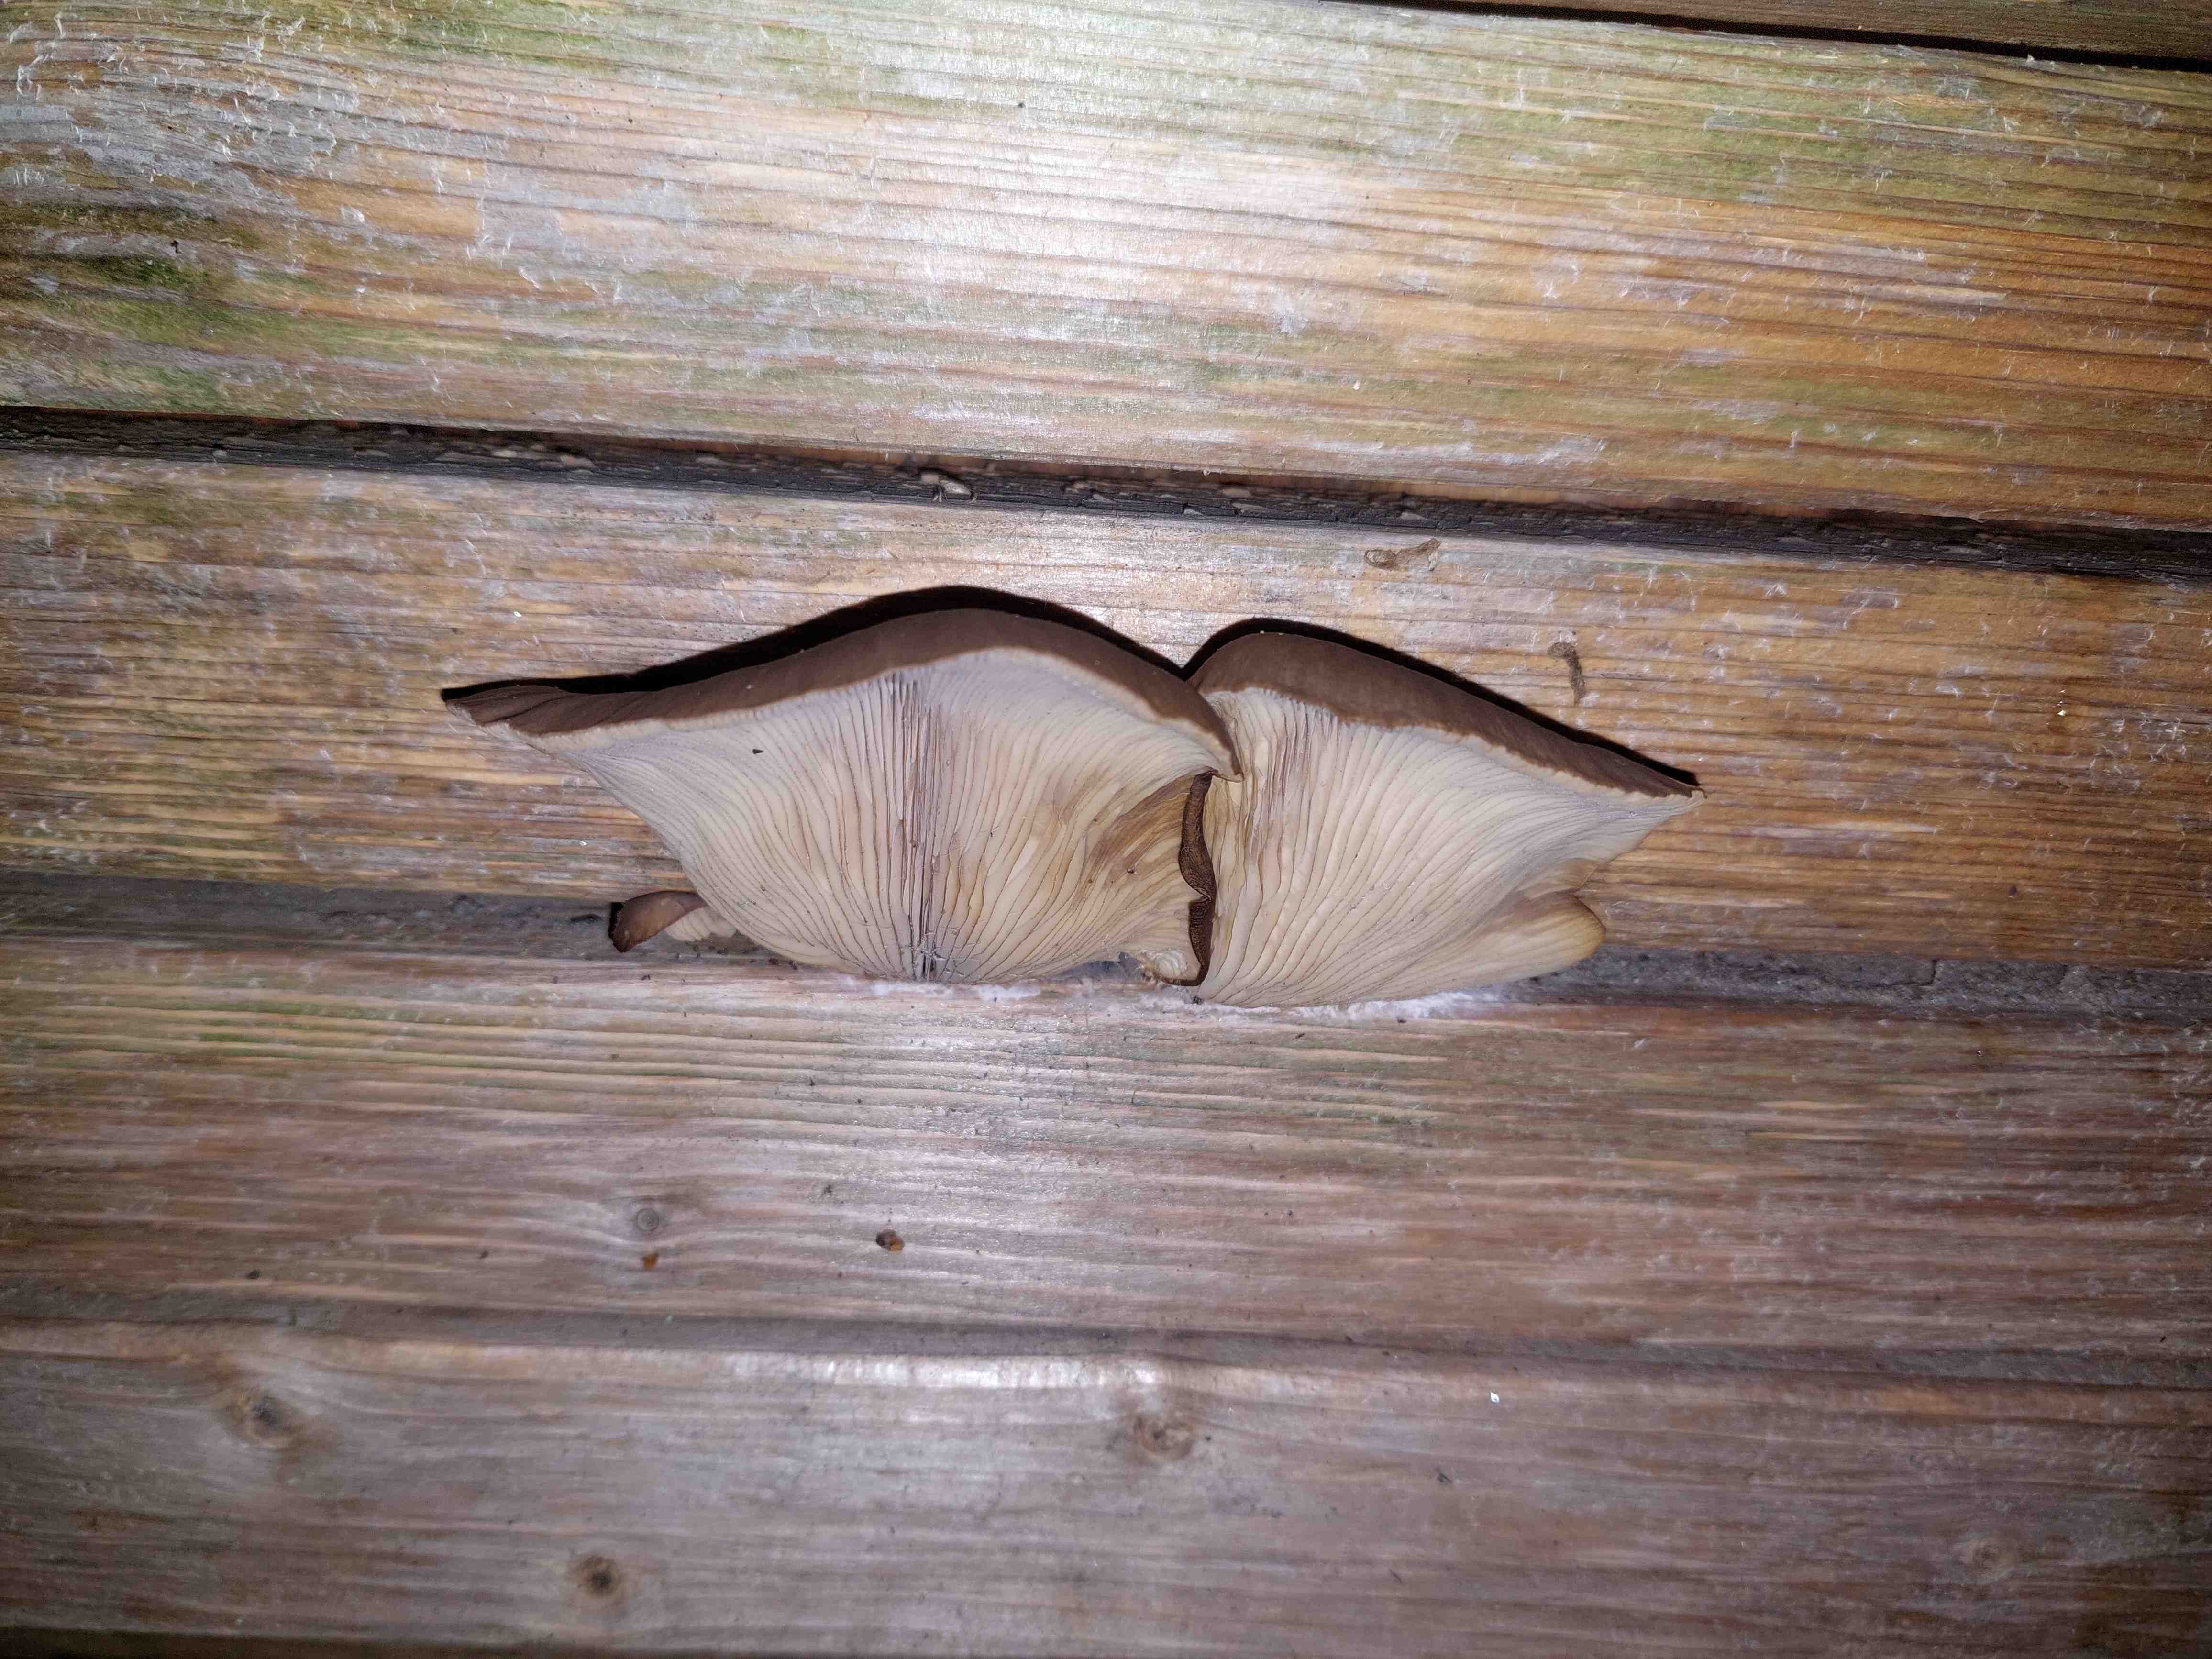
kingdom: Fungi
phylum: Basidiomycota
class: Agaricomycetes
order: Agaricales
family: Pleurotaceae
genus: Pleurotus
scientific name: Pleurotus ostreatus
